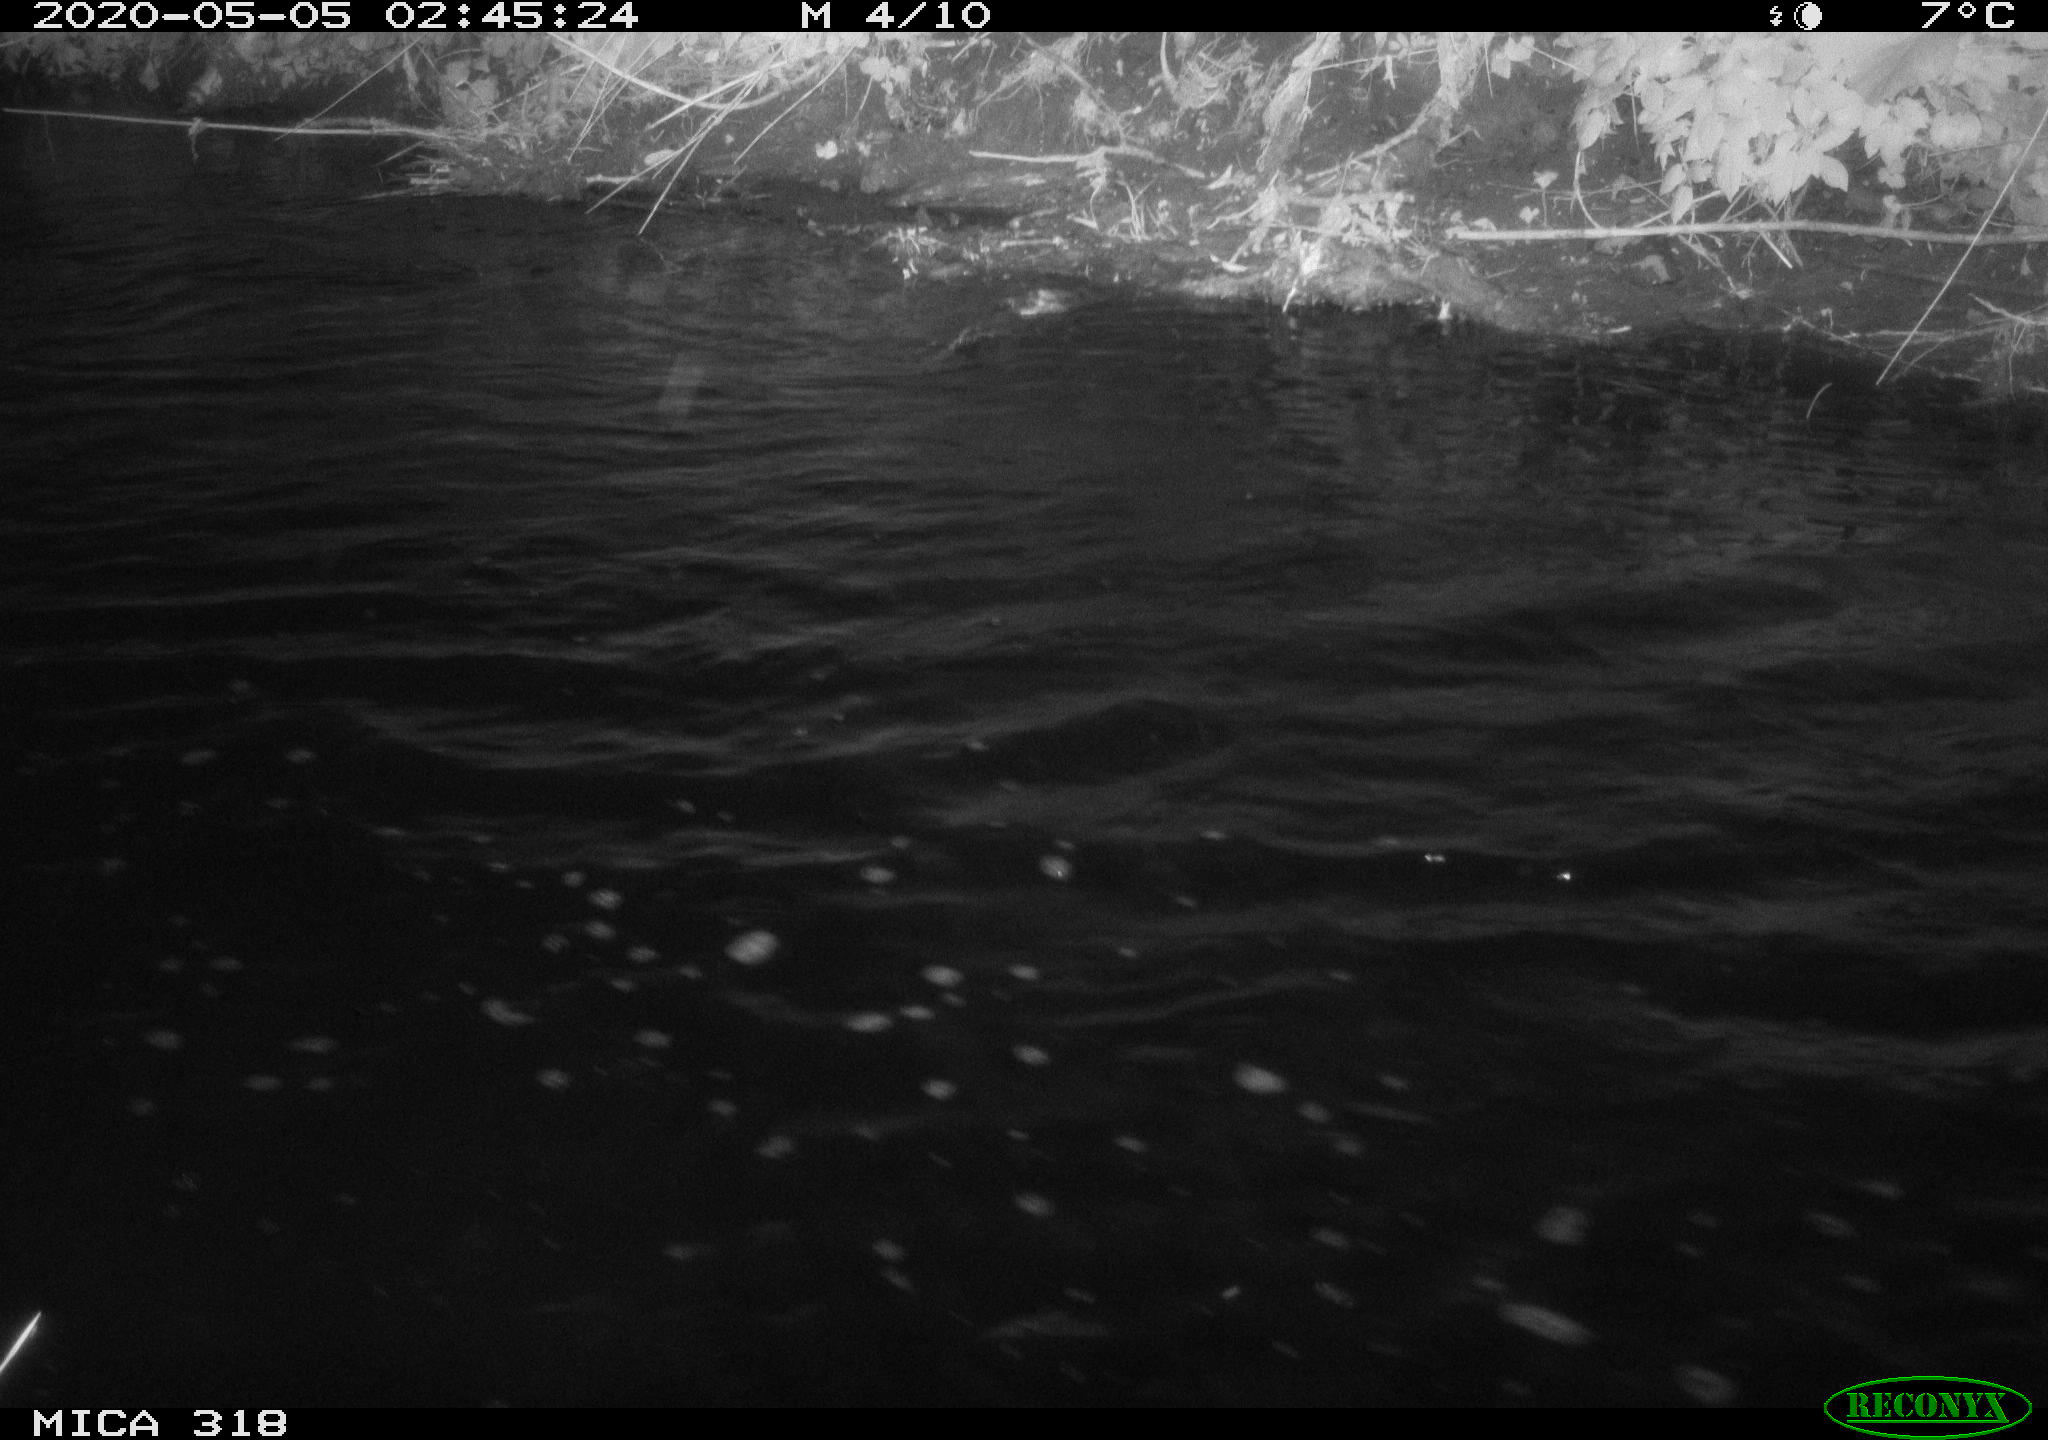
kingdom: Animalia
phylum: Chordata
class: Aves
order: Anseriformes
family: Anatidae
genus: Anas
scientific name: Anas platyrhynchos
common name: Mallard
